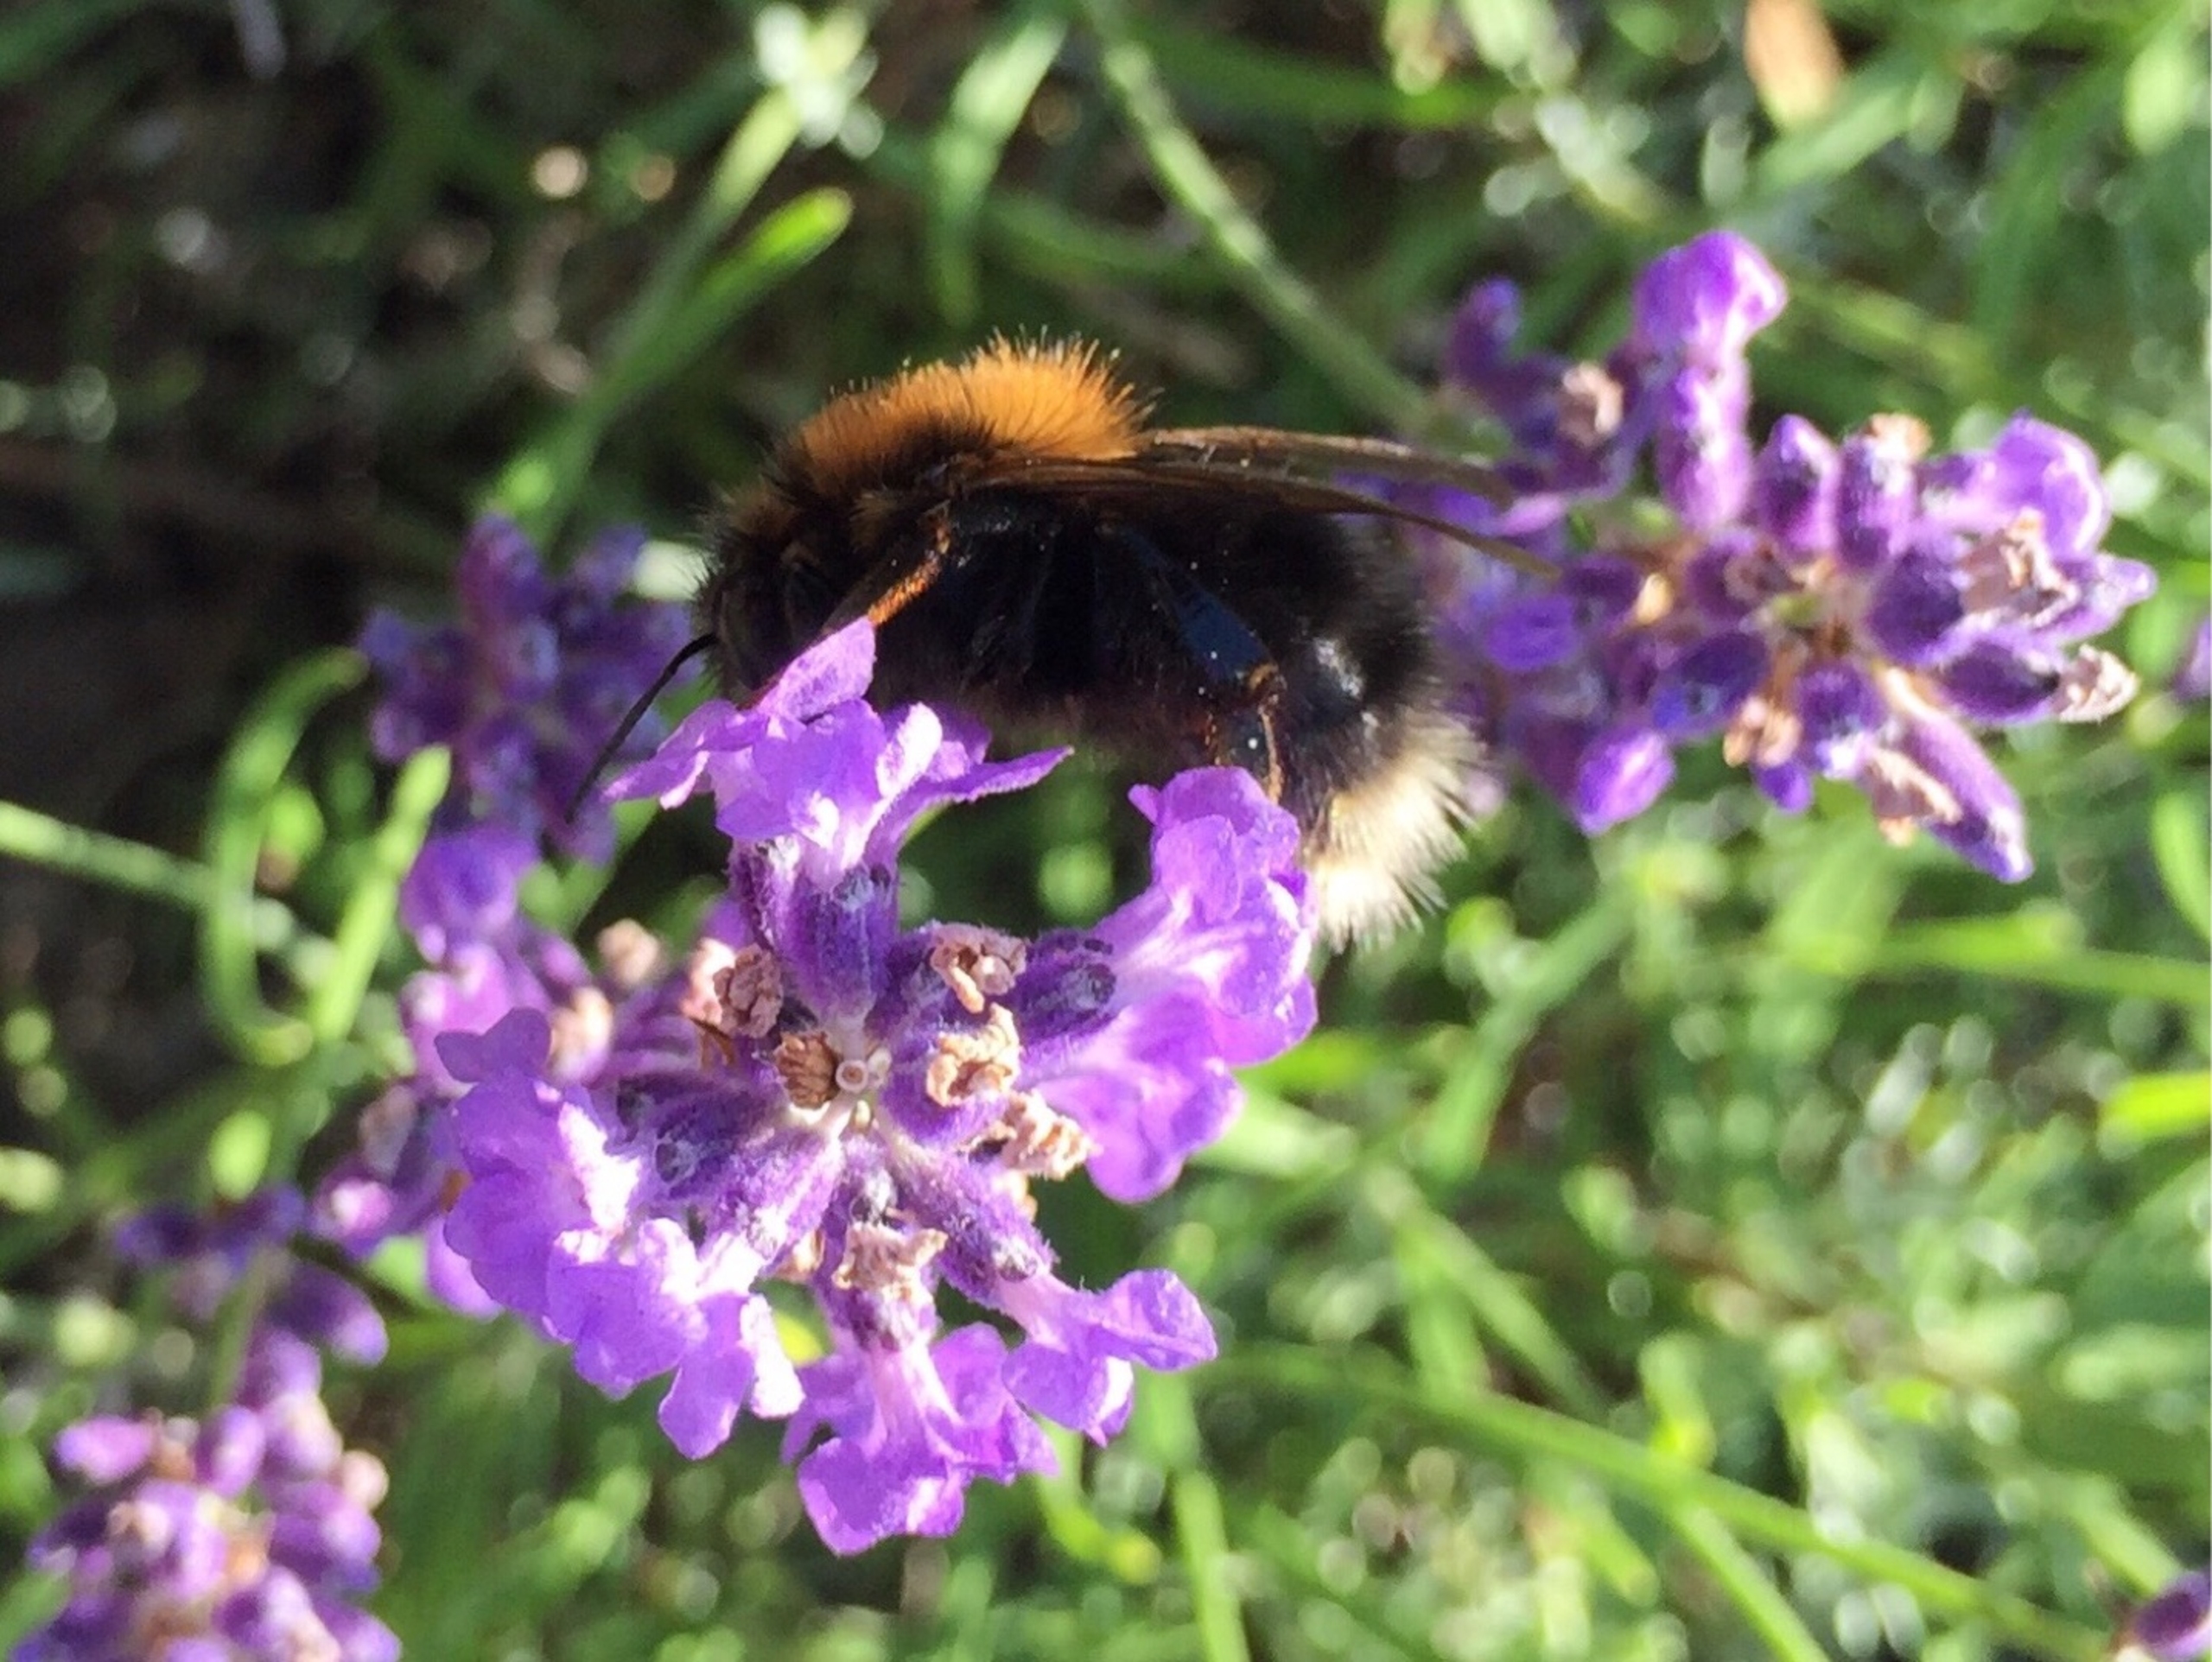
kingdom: Animalia
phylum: Arthropoda
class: Insecta
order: Hymenoptera
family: Apidae
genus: Bombus
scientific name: Bombus hypnorum
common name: Hushumle
